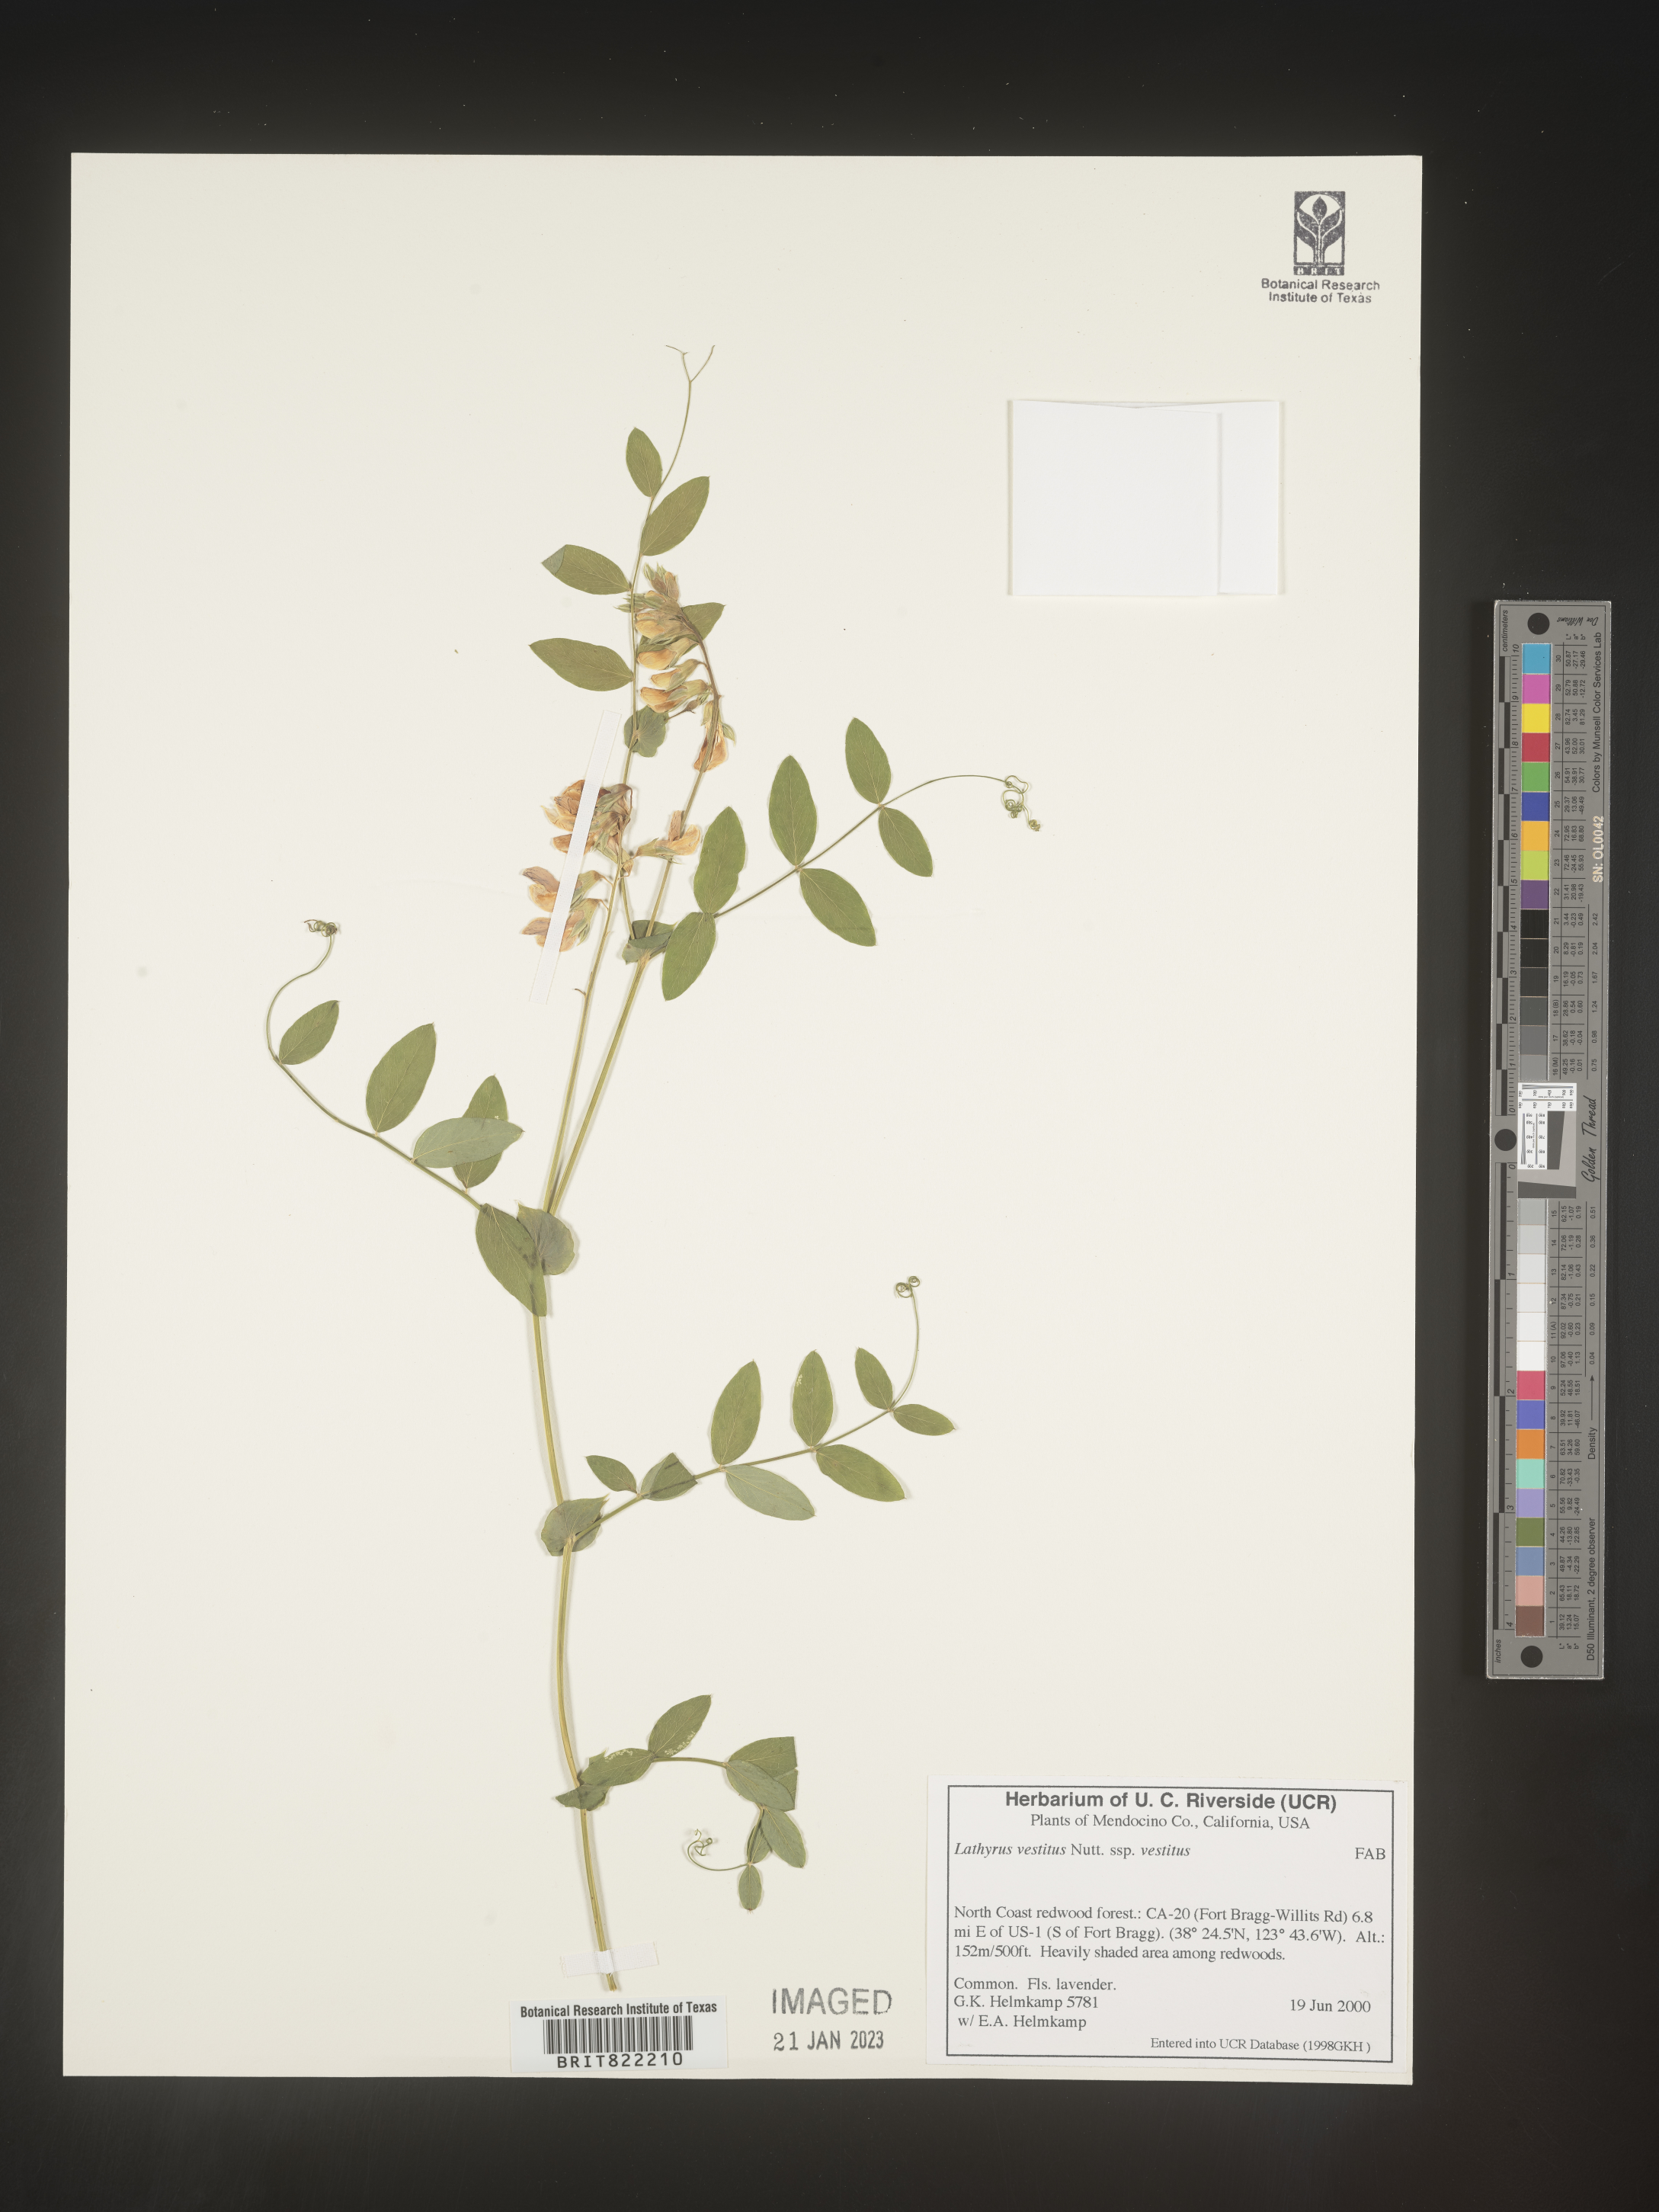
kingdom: Plantae
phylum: Tracheophyta
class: Magnoliopsida
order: Fabales
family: Fabaceae
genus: Lathyrus
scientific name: Lathyrus vestitus
